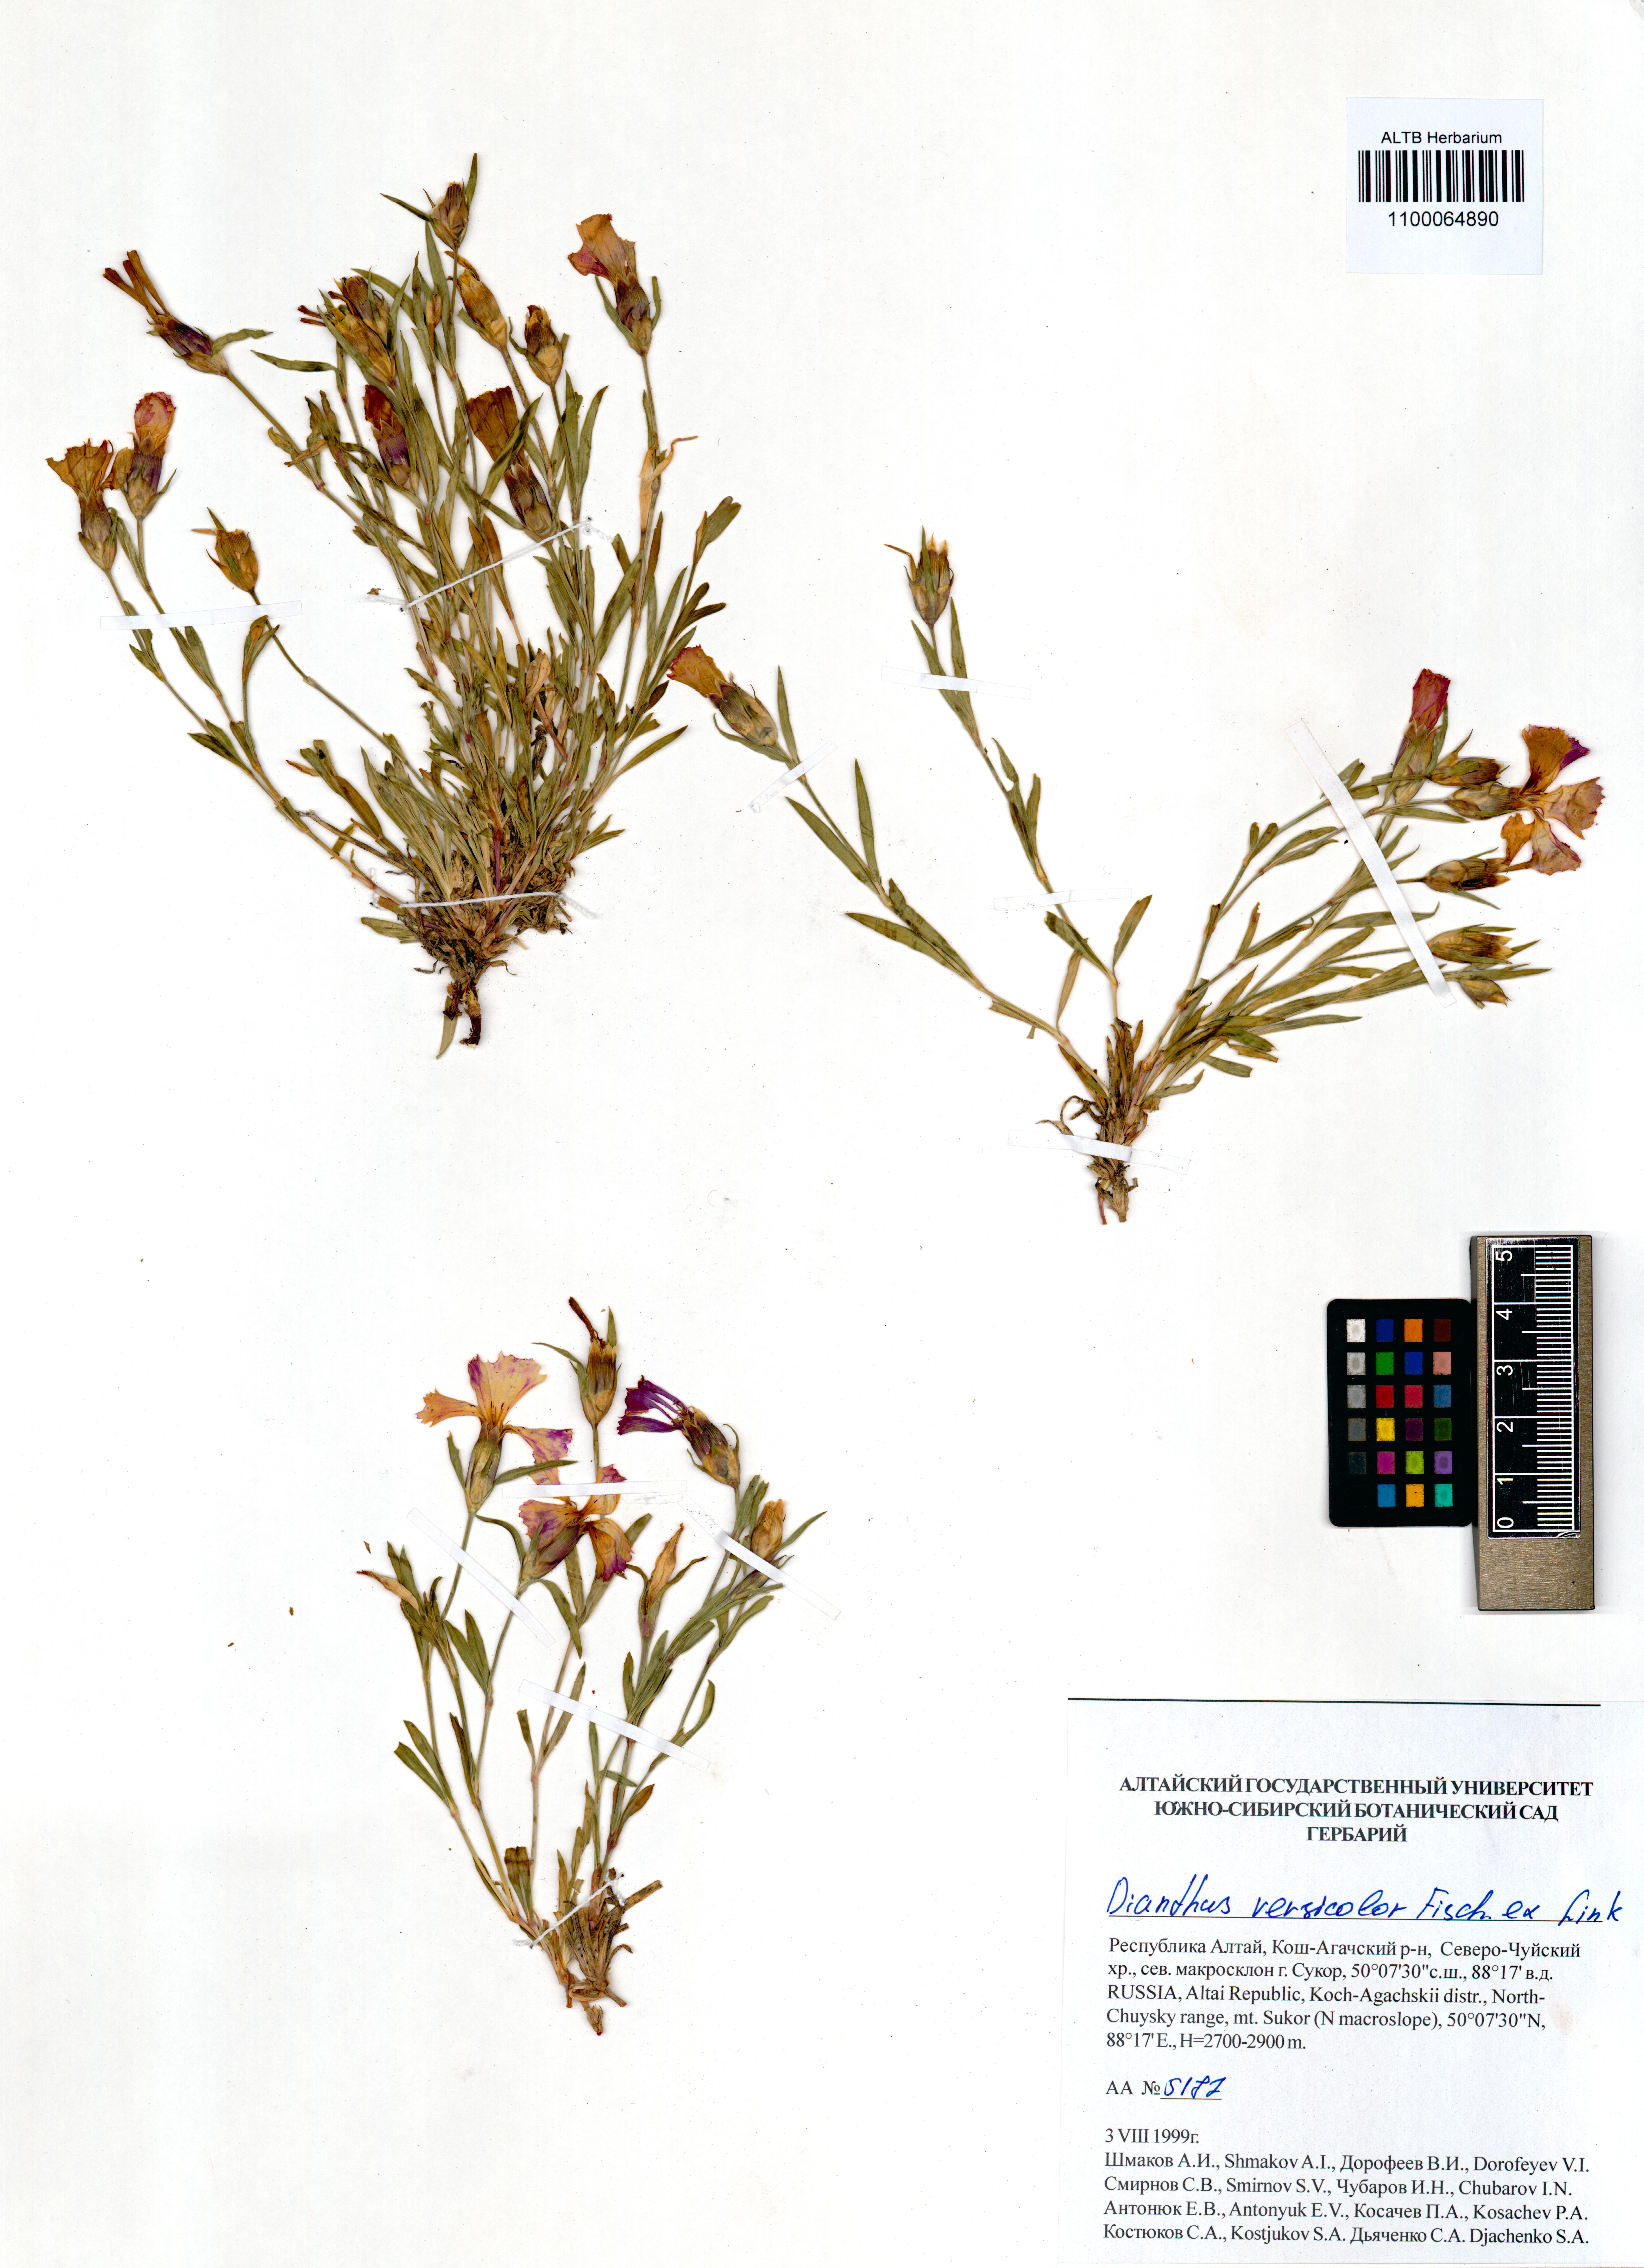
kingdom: Plantae
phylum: Tracheophyta
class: Magnoliopsida
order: Caryophyllales
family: Caryophyllaceae
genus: Dianthus
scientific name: Dianthus chinensis
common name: Rainbow pink
